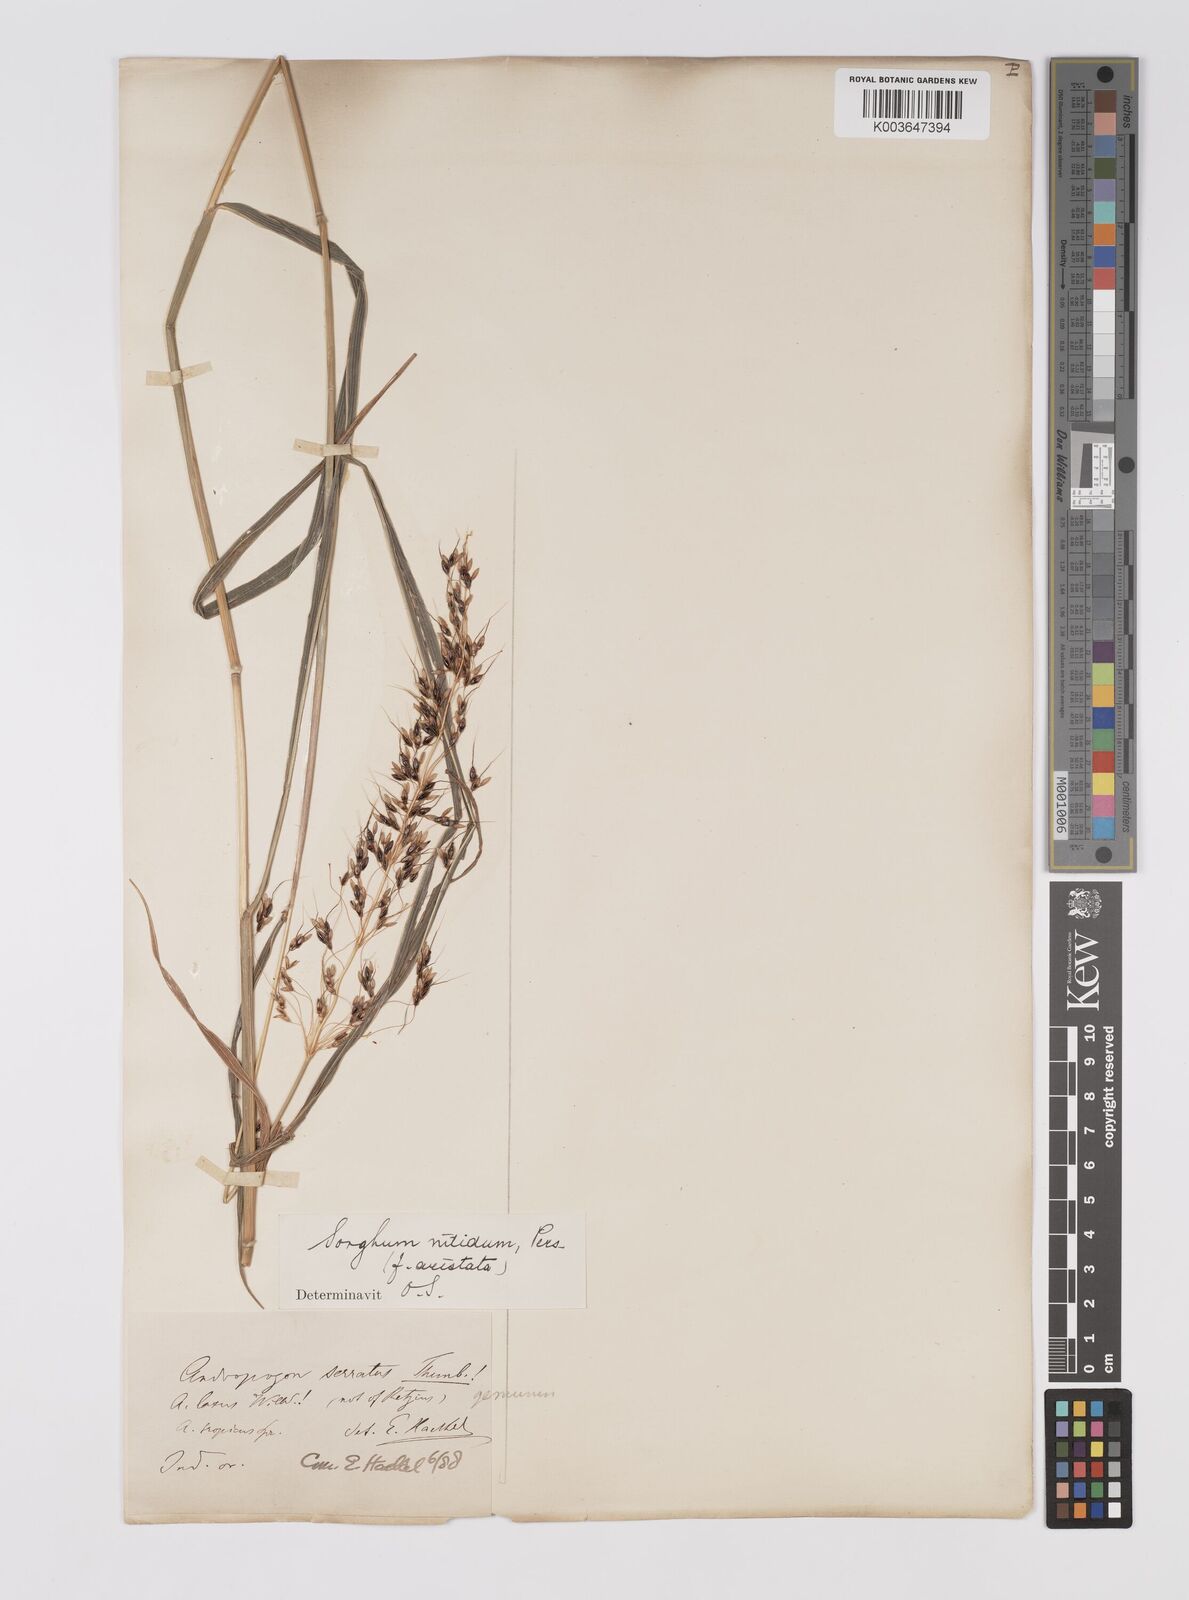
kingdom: Plantae
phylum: Tracheophyta
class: Liliopsida
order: Poales
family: Poaceae
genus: Sorghum
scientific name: Sorghum nitidum
